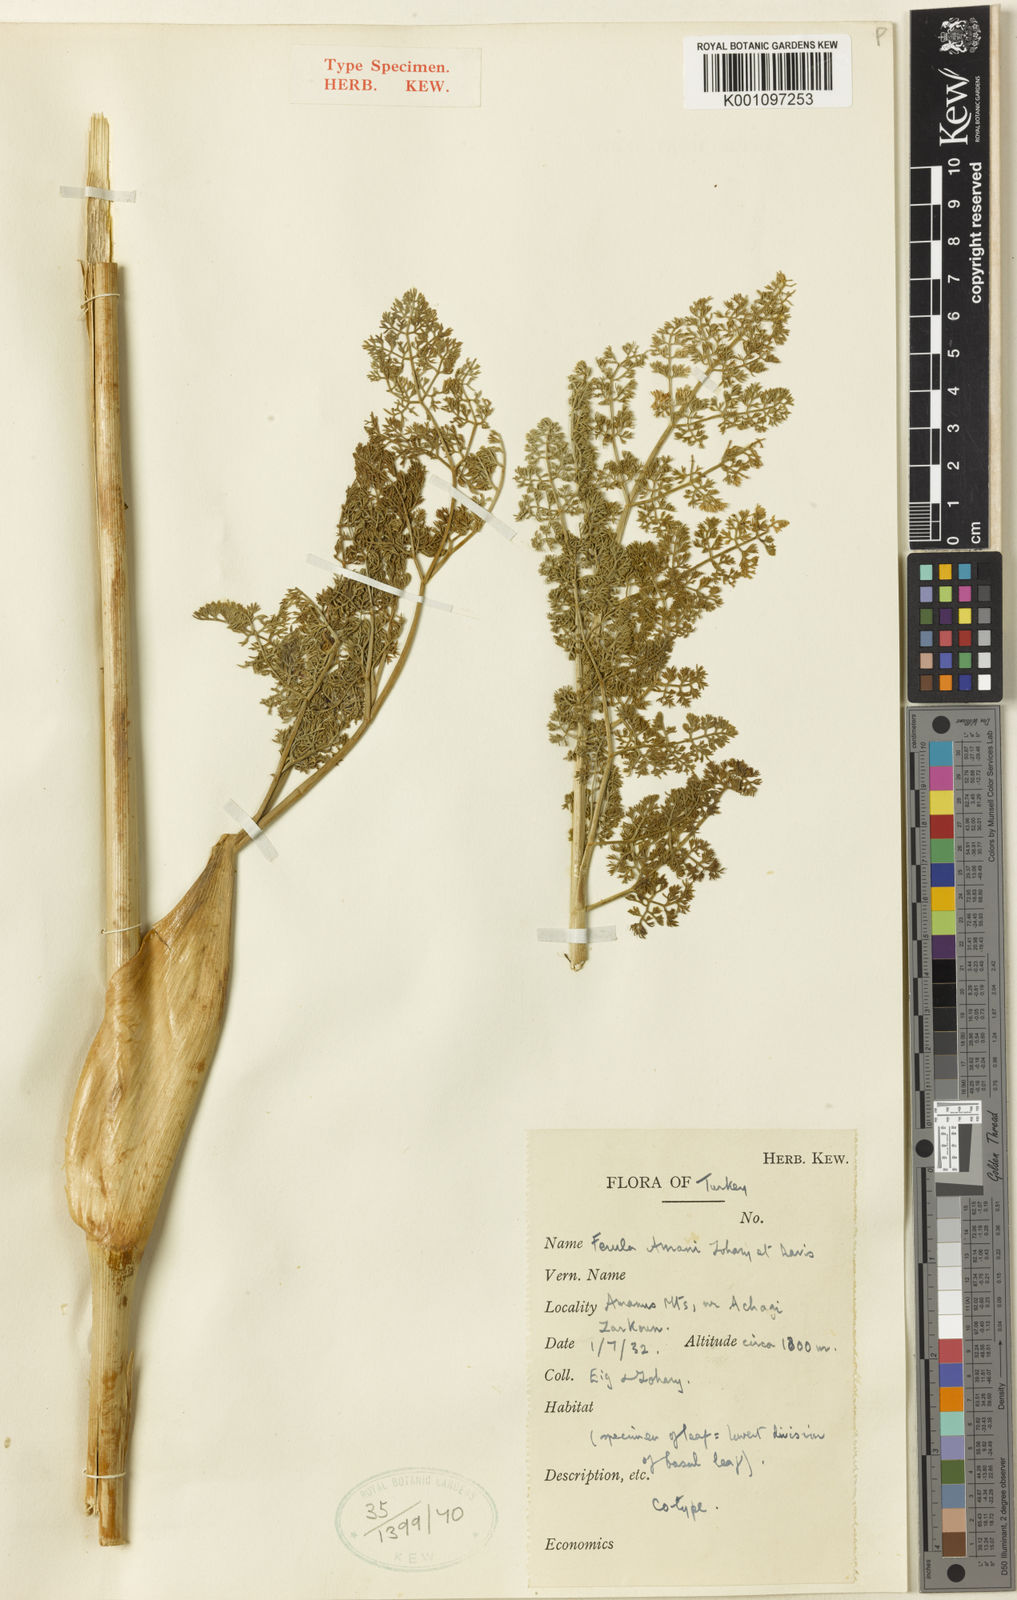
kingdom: Plantae
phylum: Tracheophyta
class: Magnoliopsida
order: Apiales
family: Apiaceae
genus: Ferula
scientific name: Ferula elaeochytris
